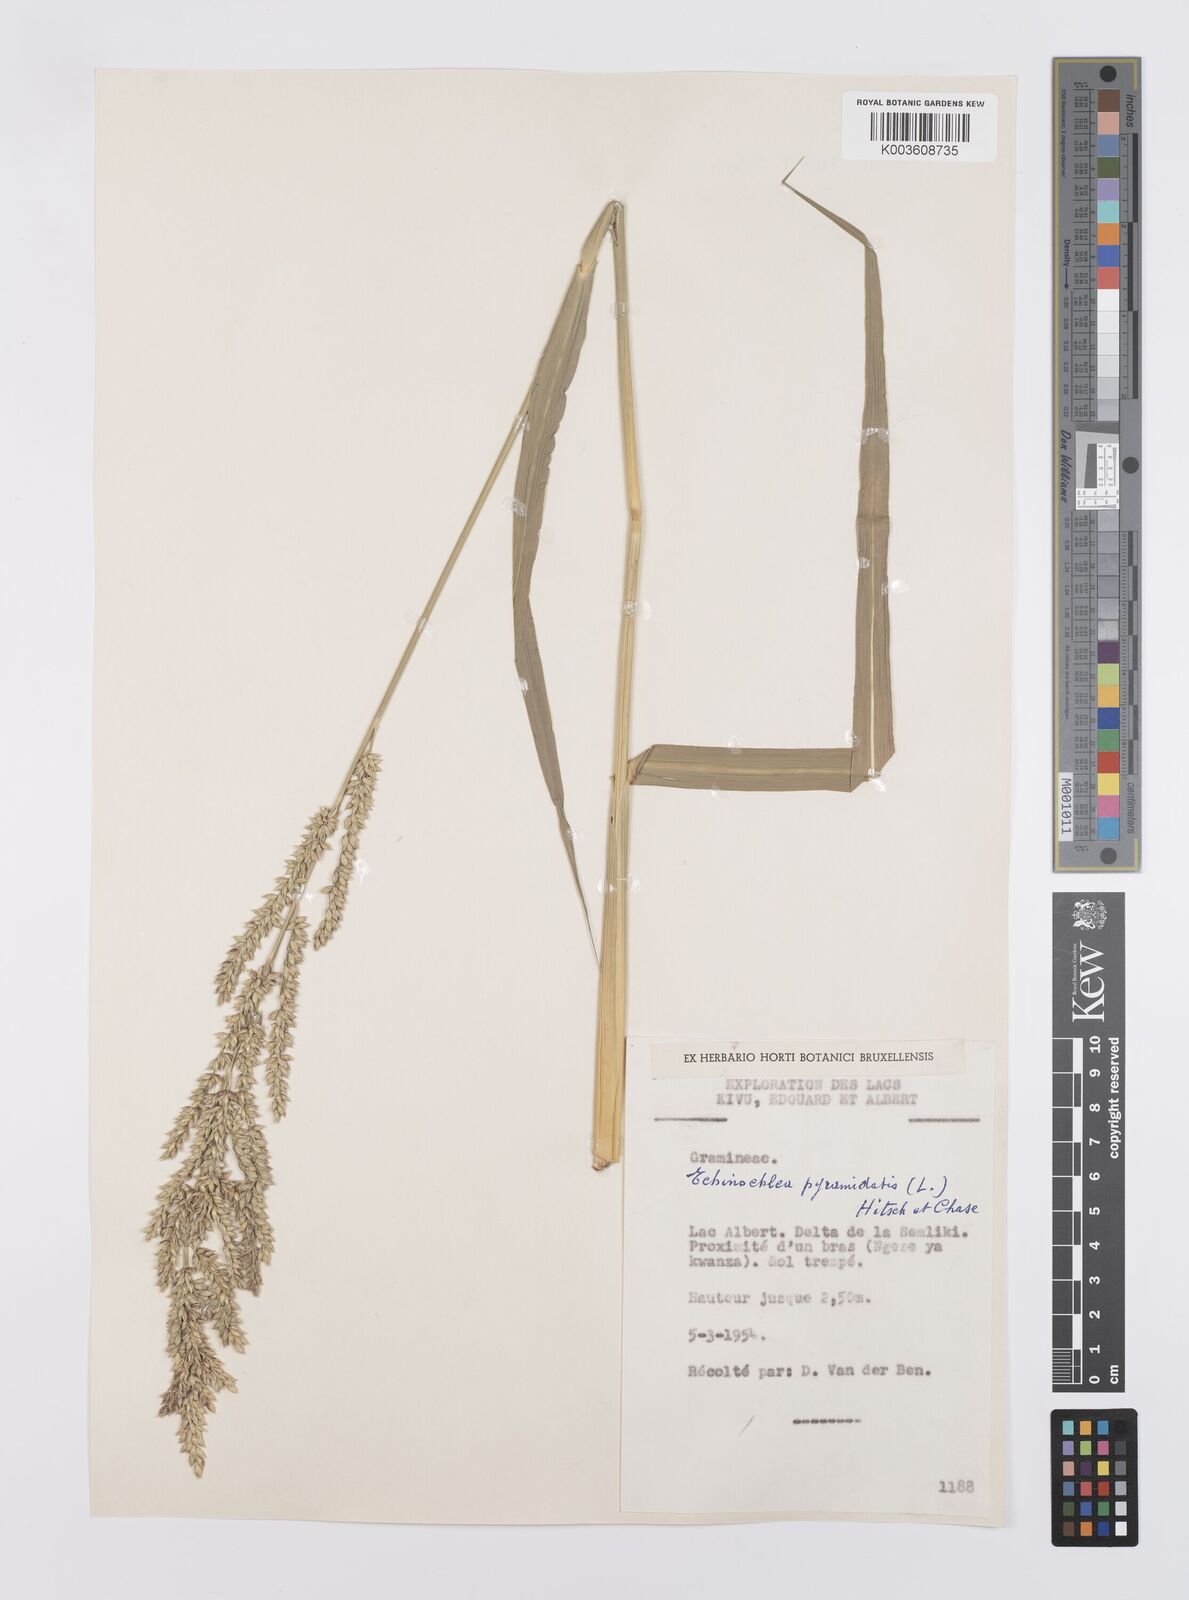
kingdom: Plantae
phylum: Tracheophyta
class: Liliopsida
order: Poales
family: Poaceae
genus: Echinochloa
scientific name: Echinochloa pyramidalis
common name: Antelope grass
